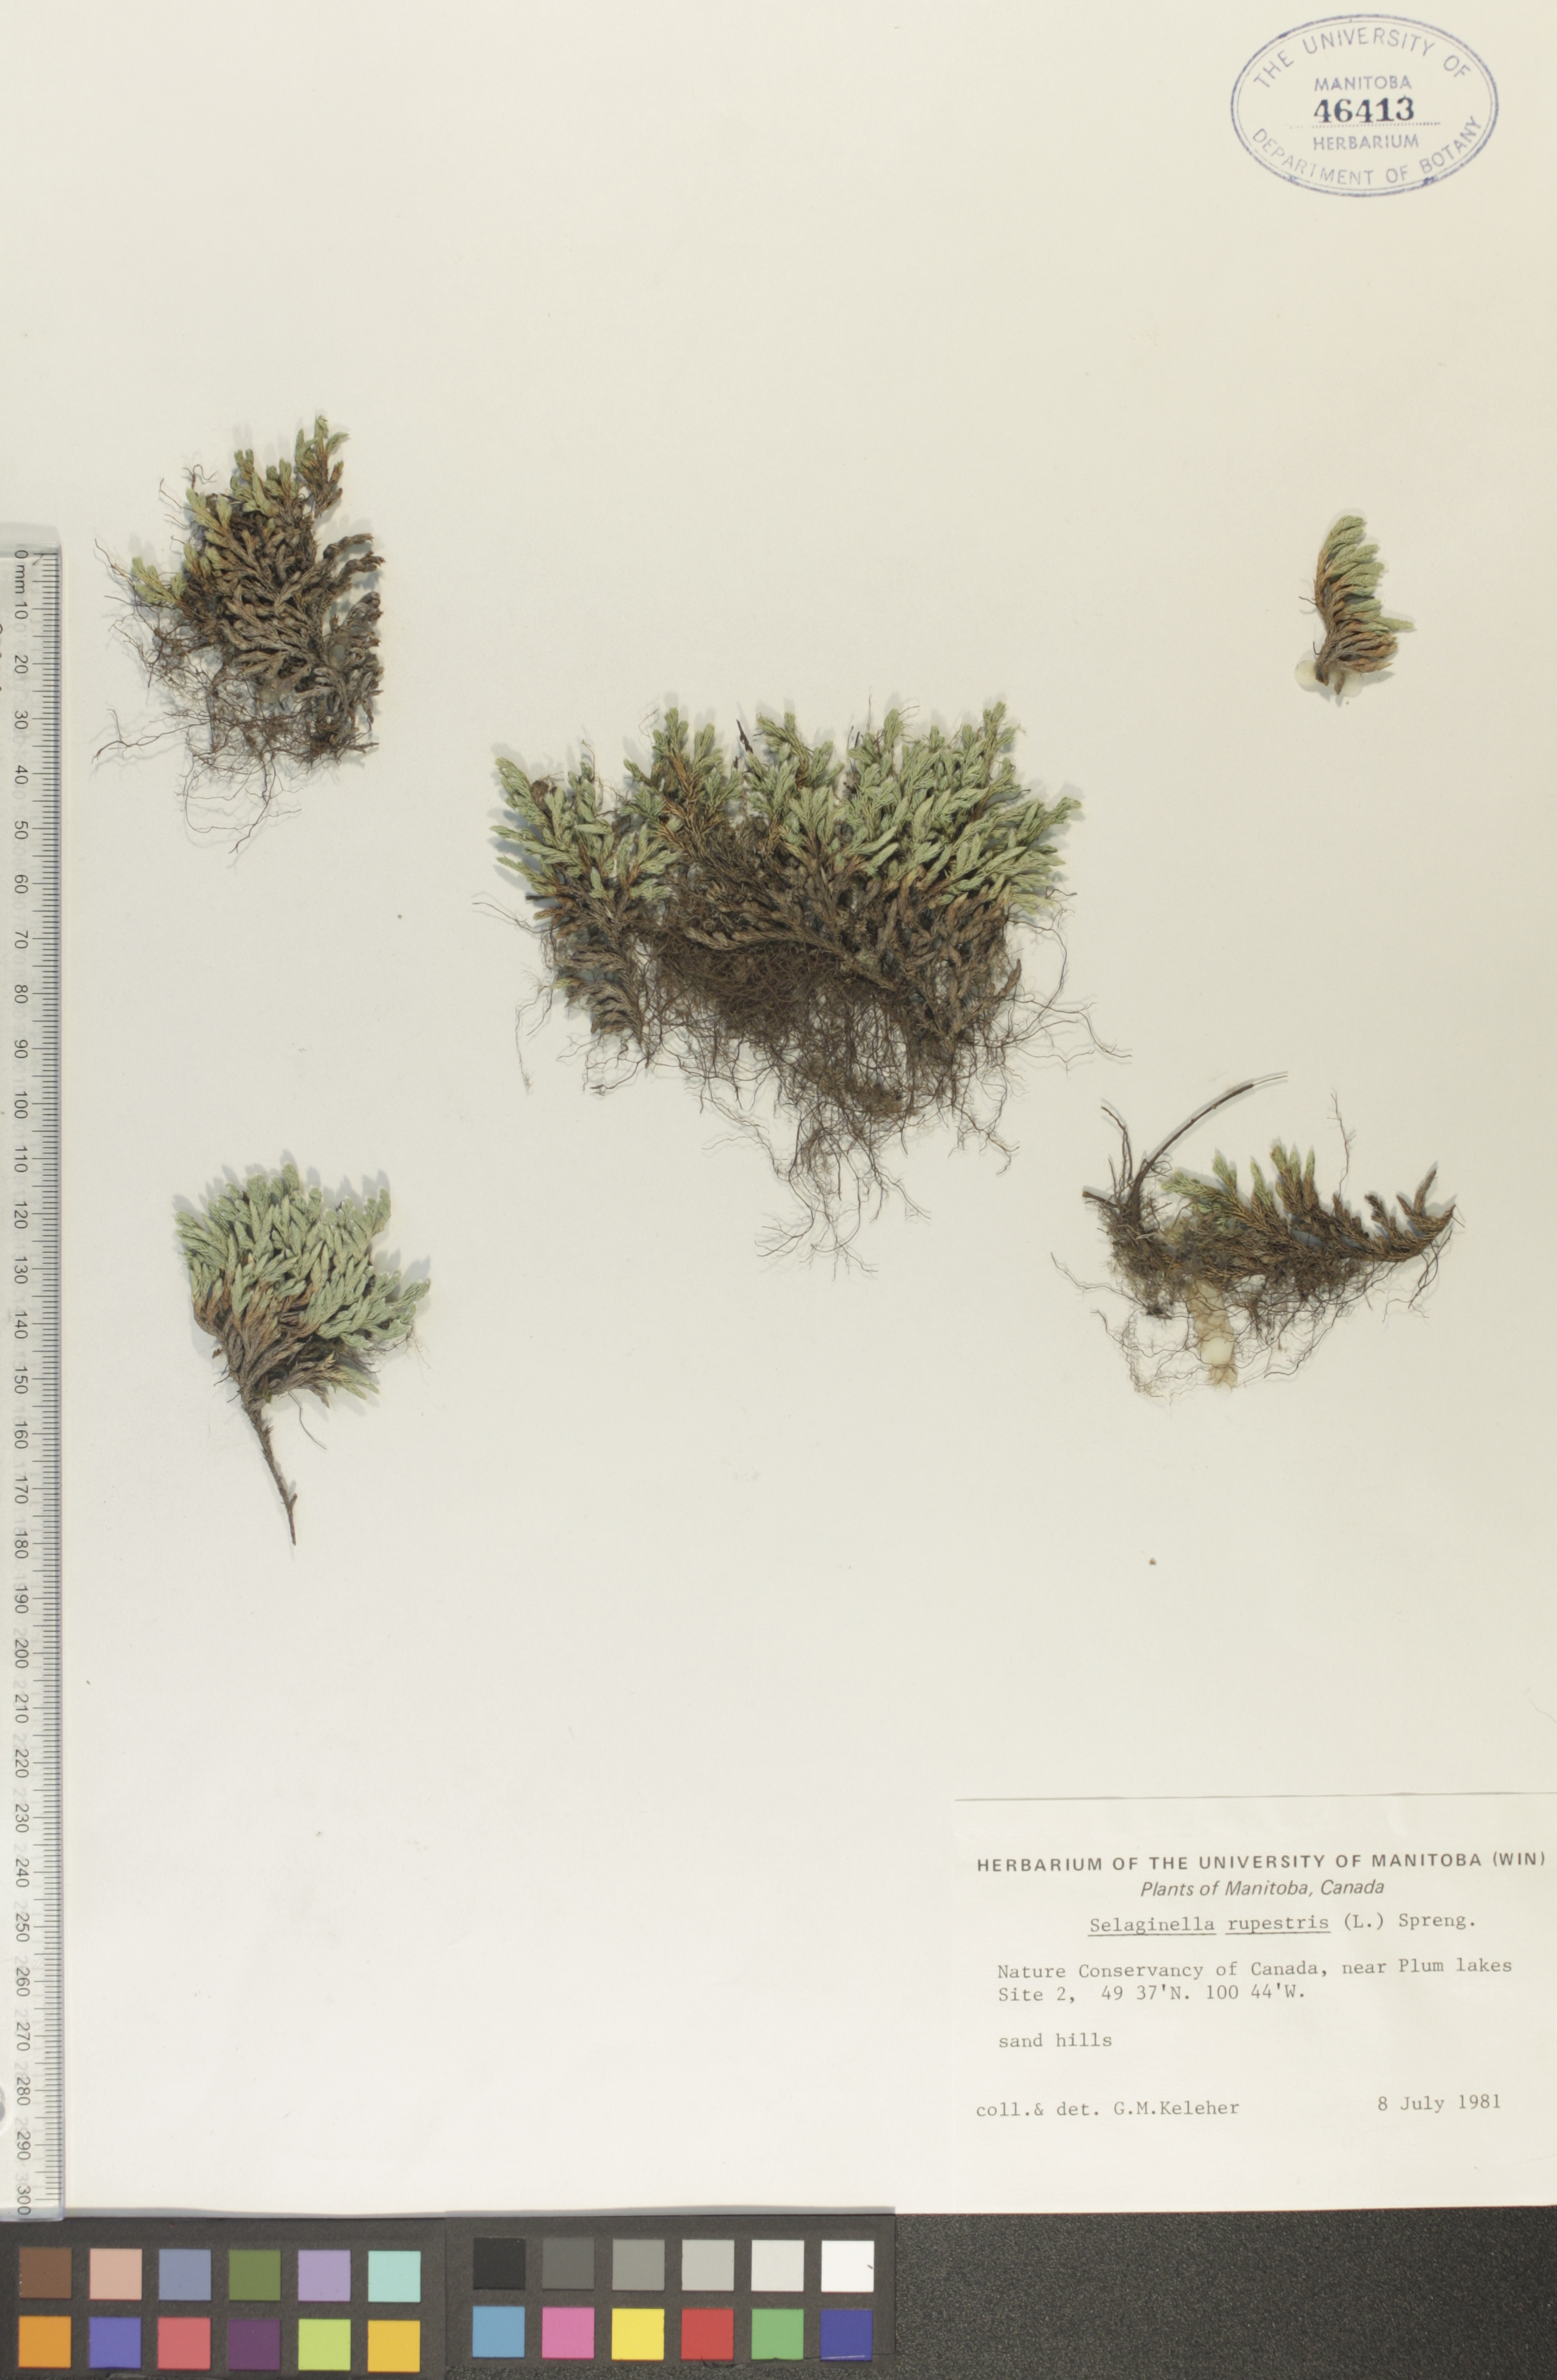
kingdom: Plantae
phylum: Tracheophyta
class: Lycopodiopsida
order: Selaginellales
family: Selaginellaceae
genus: Selaginella
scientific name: Selaginella rupestris
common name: Dwarf spikemoss
